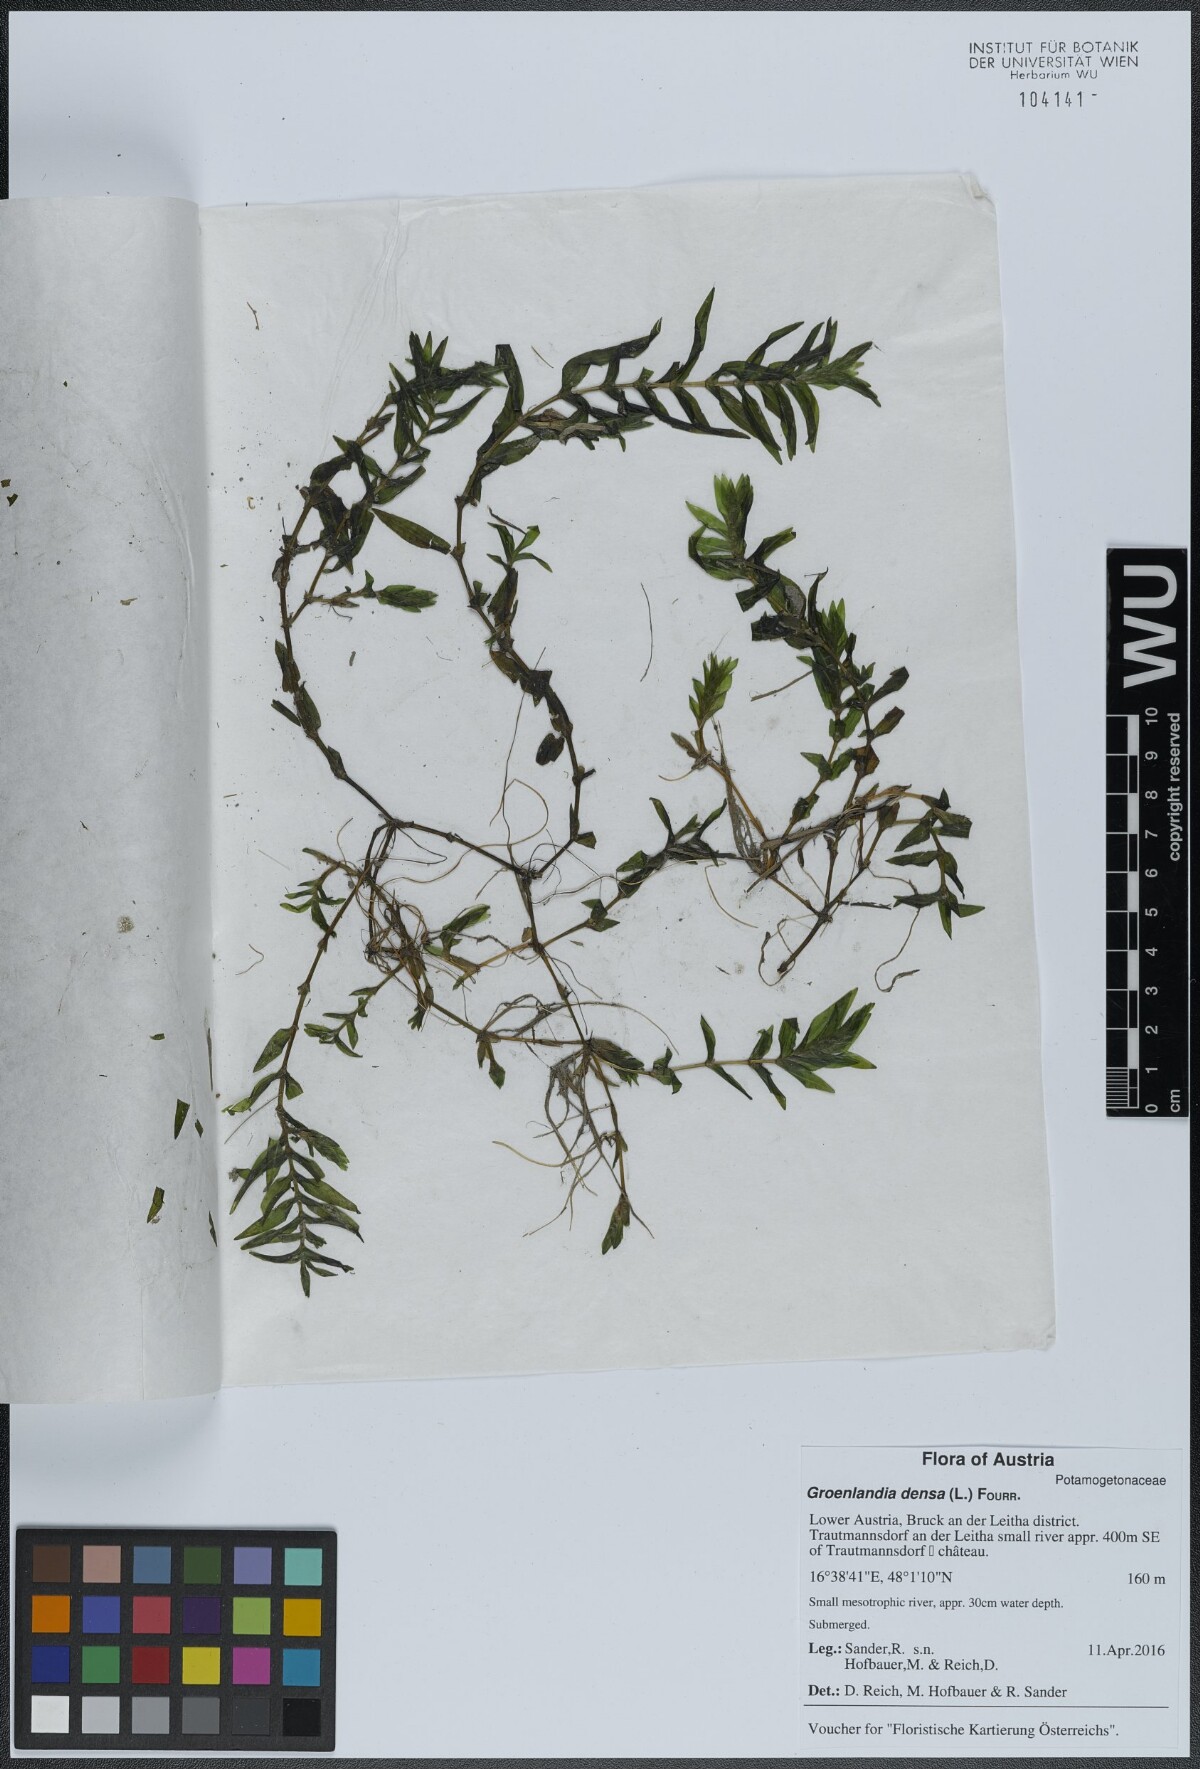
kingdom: Plantae
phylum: Tracheophyta
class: Liliopsida
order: Alismatales
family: Potamogetonaceae
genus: Groenlandia
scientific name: Groenlandia densa
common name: Opposite-leaved pondweed
